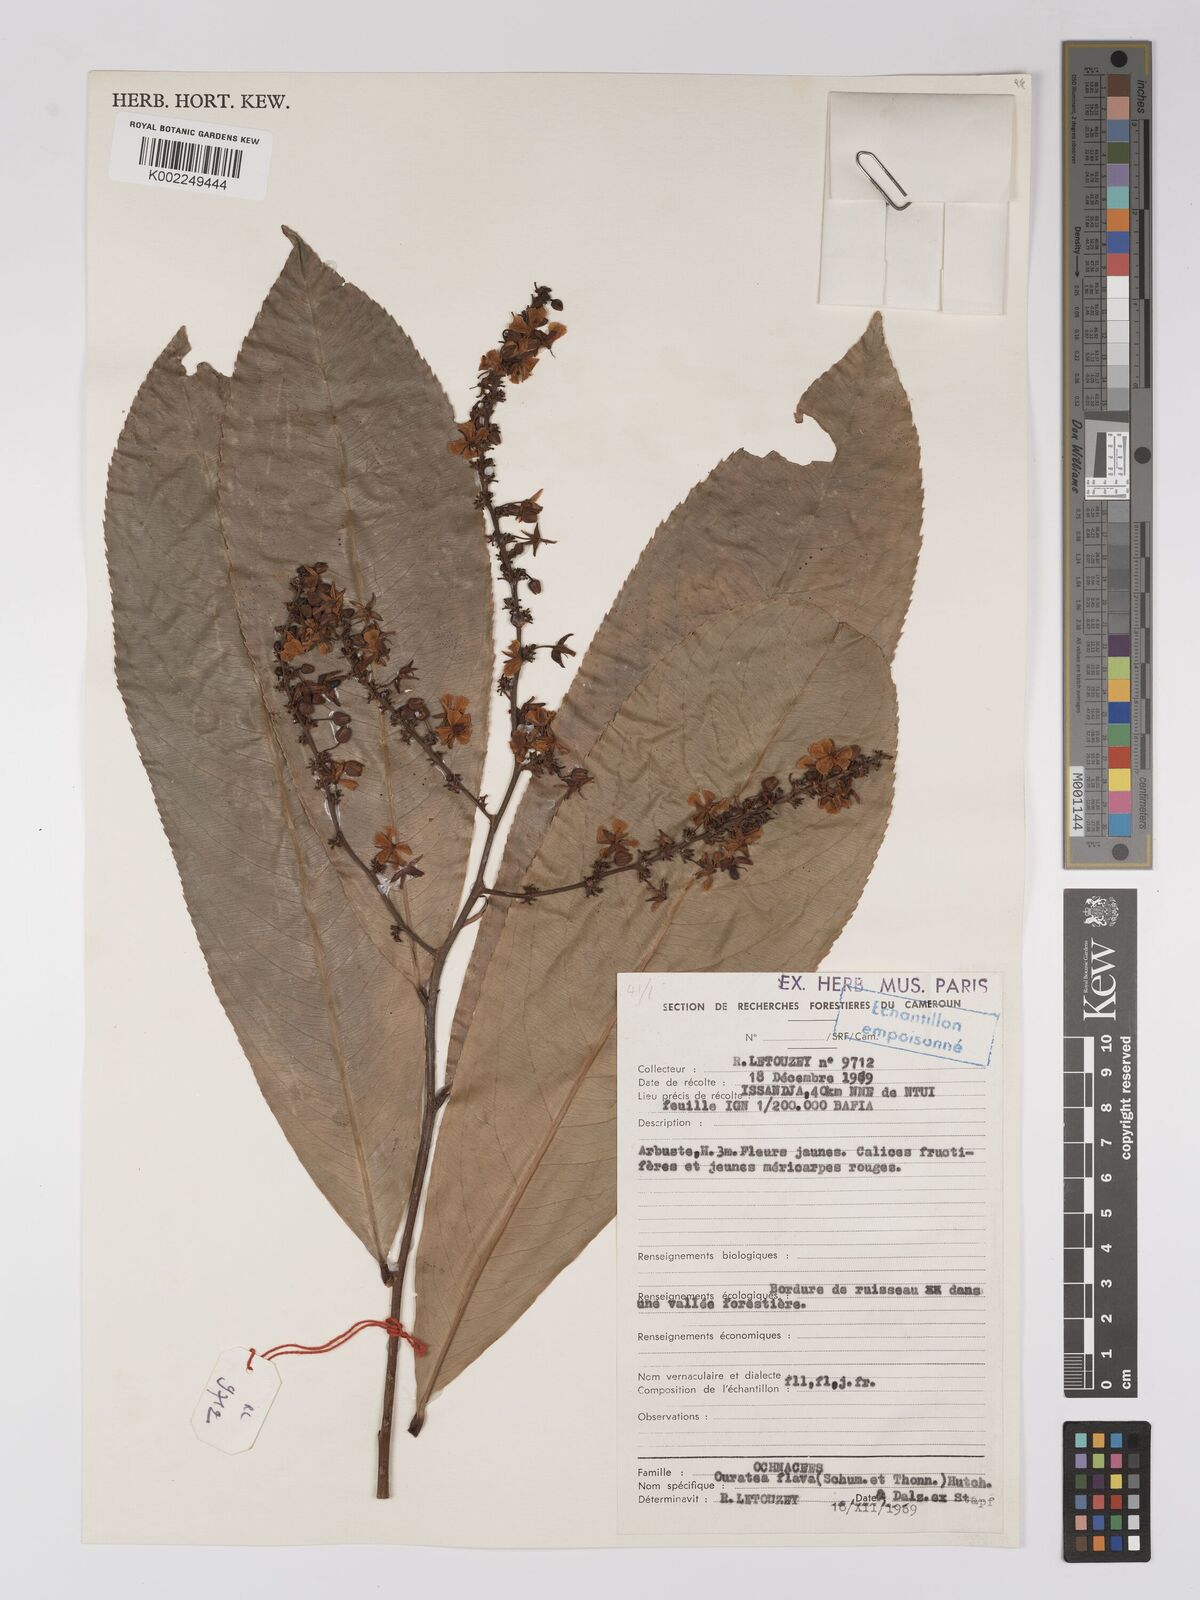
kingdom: Plantae
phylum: Tracheophyta
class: Magnoliopsida
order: Malpighiales
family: Ochnaceae
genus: Campylospermum
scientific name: Campylospermum flavum
